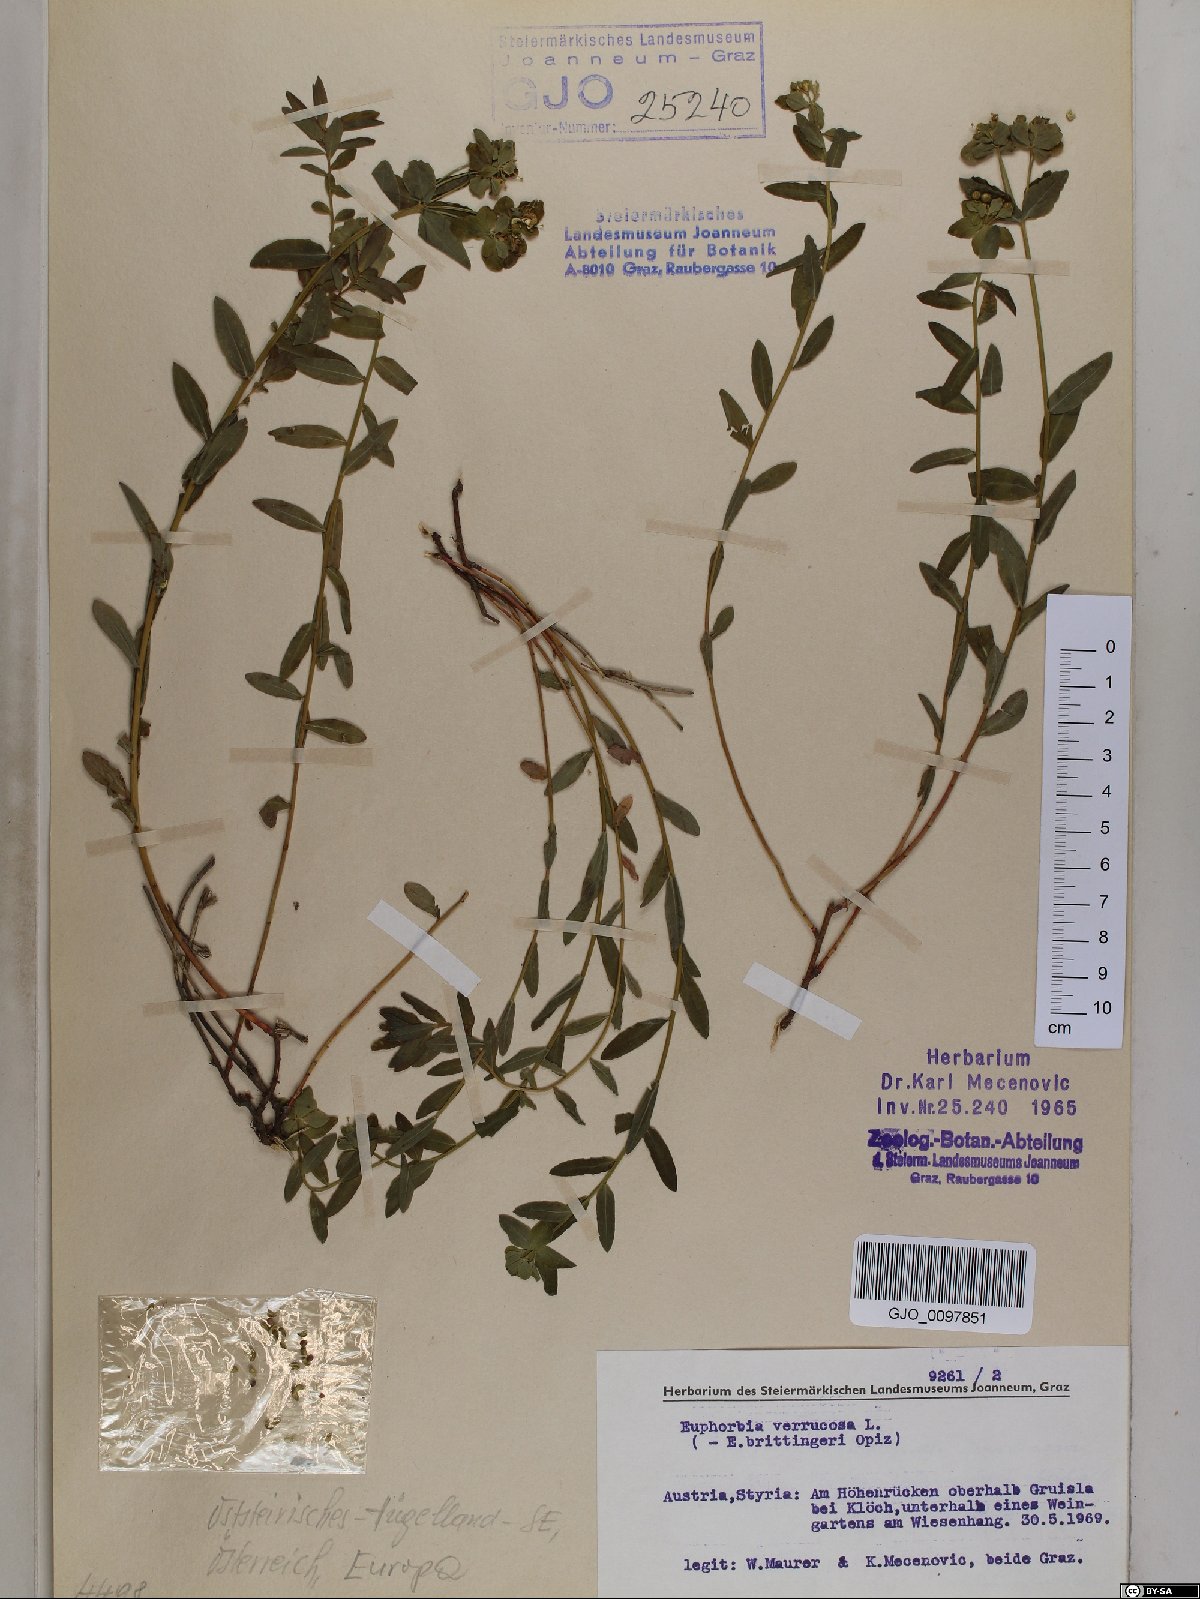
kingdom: Plantae
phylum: Tracheophyta
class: Magnoliopsida
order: Malpighiales
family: Euphorbiaceae
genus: Euphorbia
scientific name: Euphorbia verrucosa
